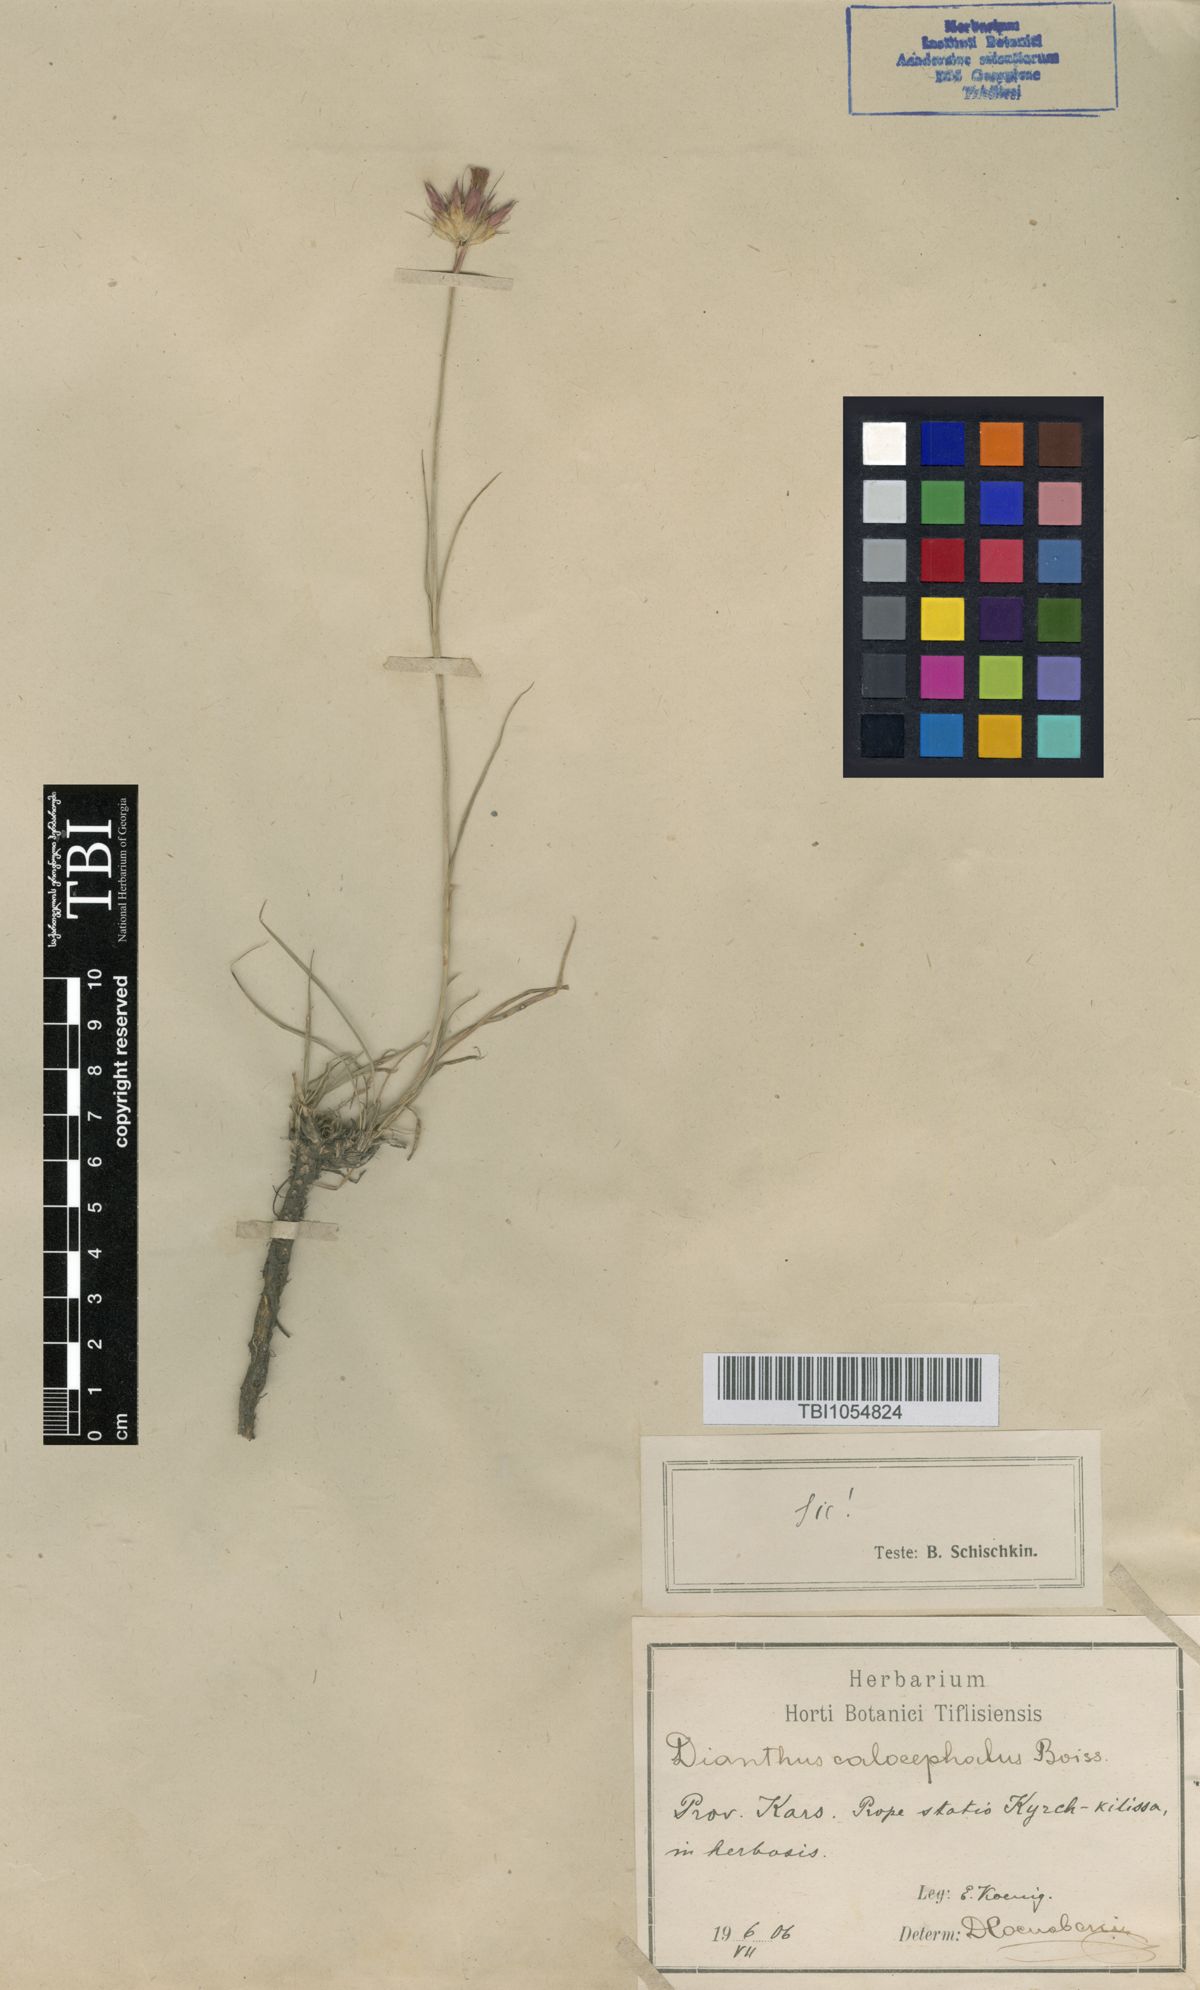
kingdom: Plantae
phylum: Tracheophyta
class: Magnoliopsida
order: Caryophyllales
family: Caryophyllaceae
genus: Dianthus
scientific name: Dianthus cruentus
